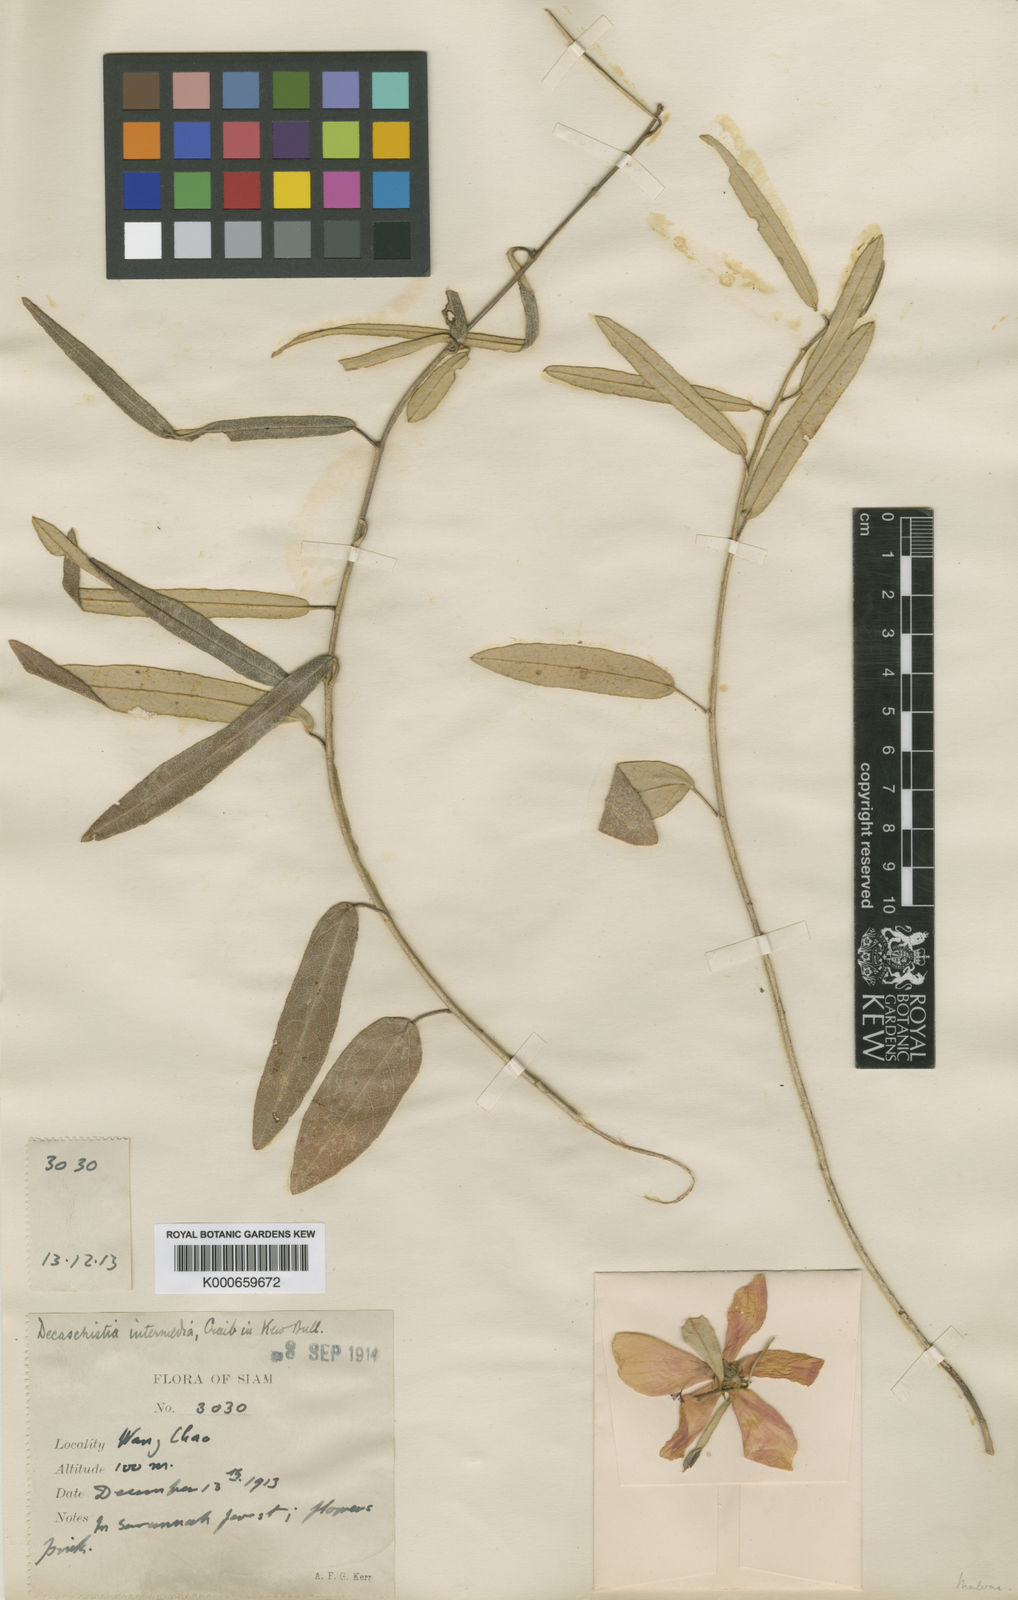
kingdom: Plantae
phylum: Tracheophyta
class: Magnoliopsida
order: Malvales
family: Malvaceae
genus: Decaschistia
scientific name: Decaschistia harmandii
